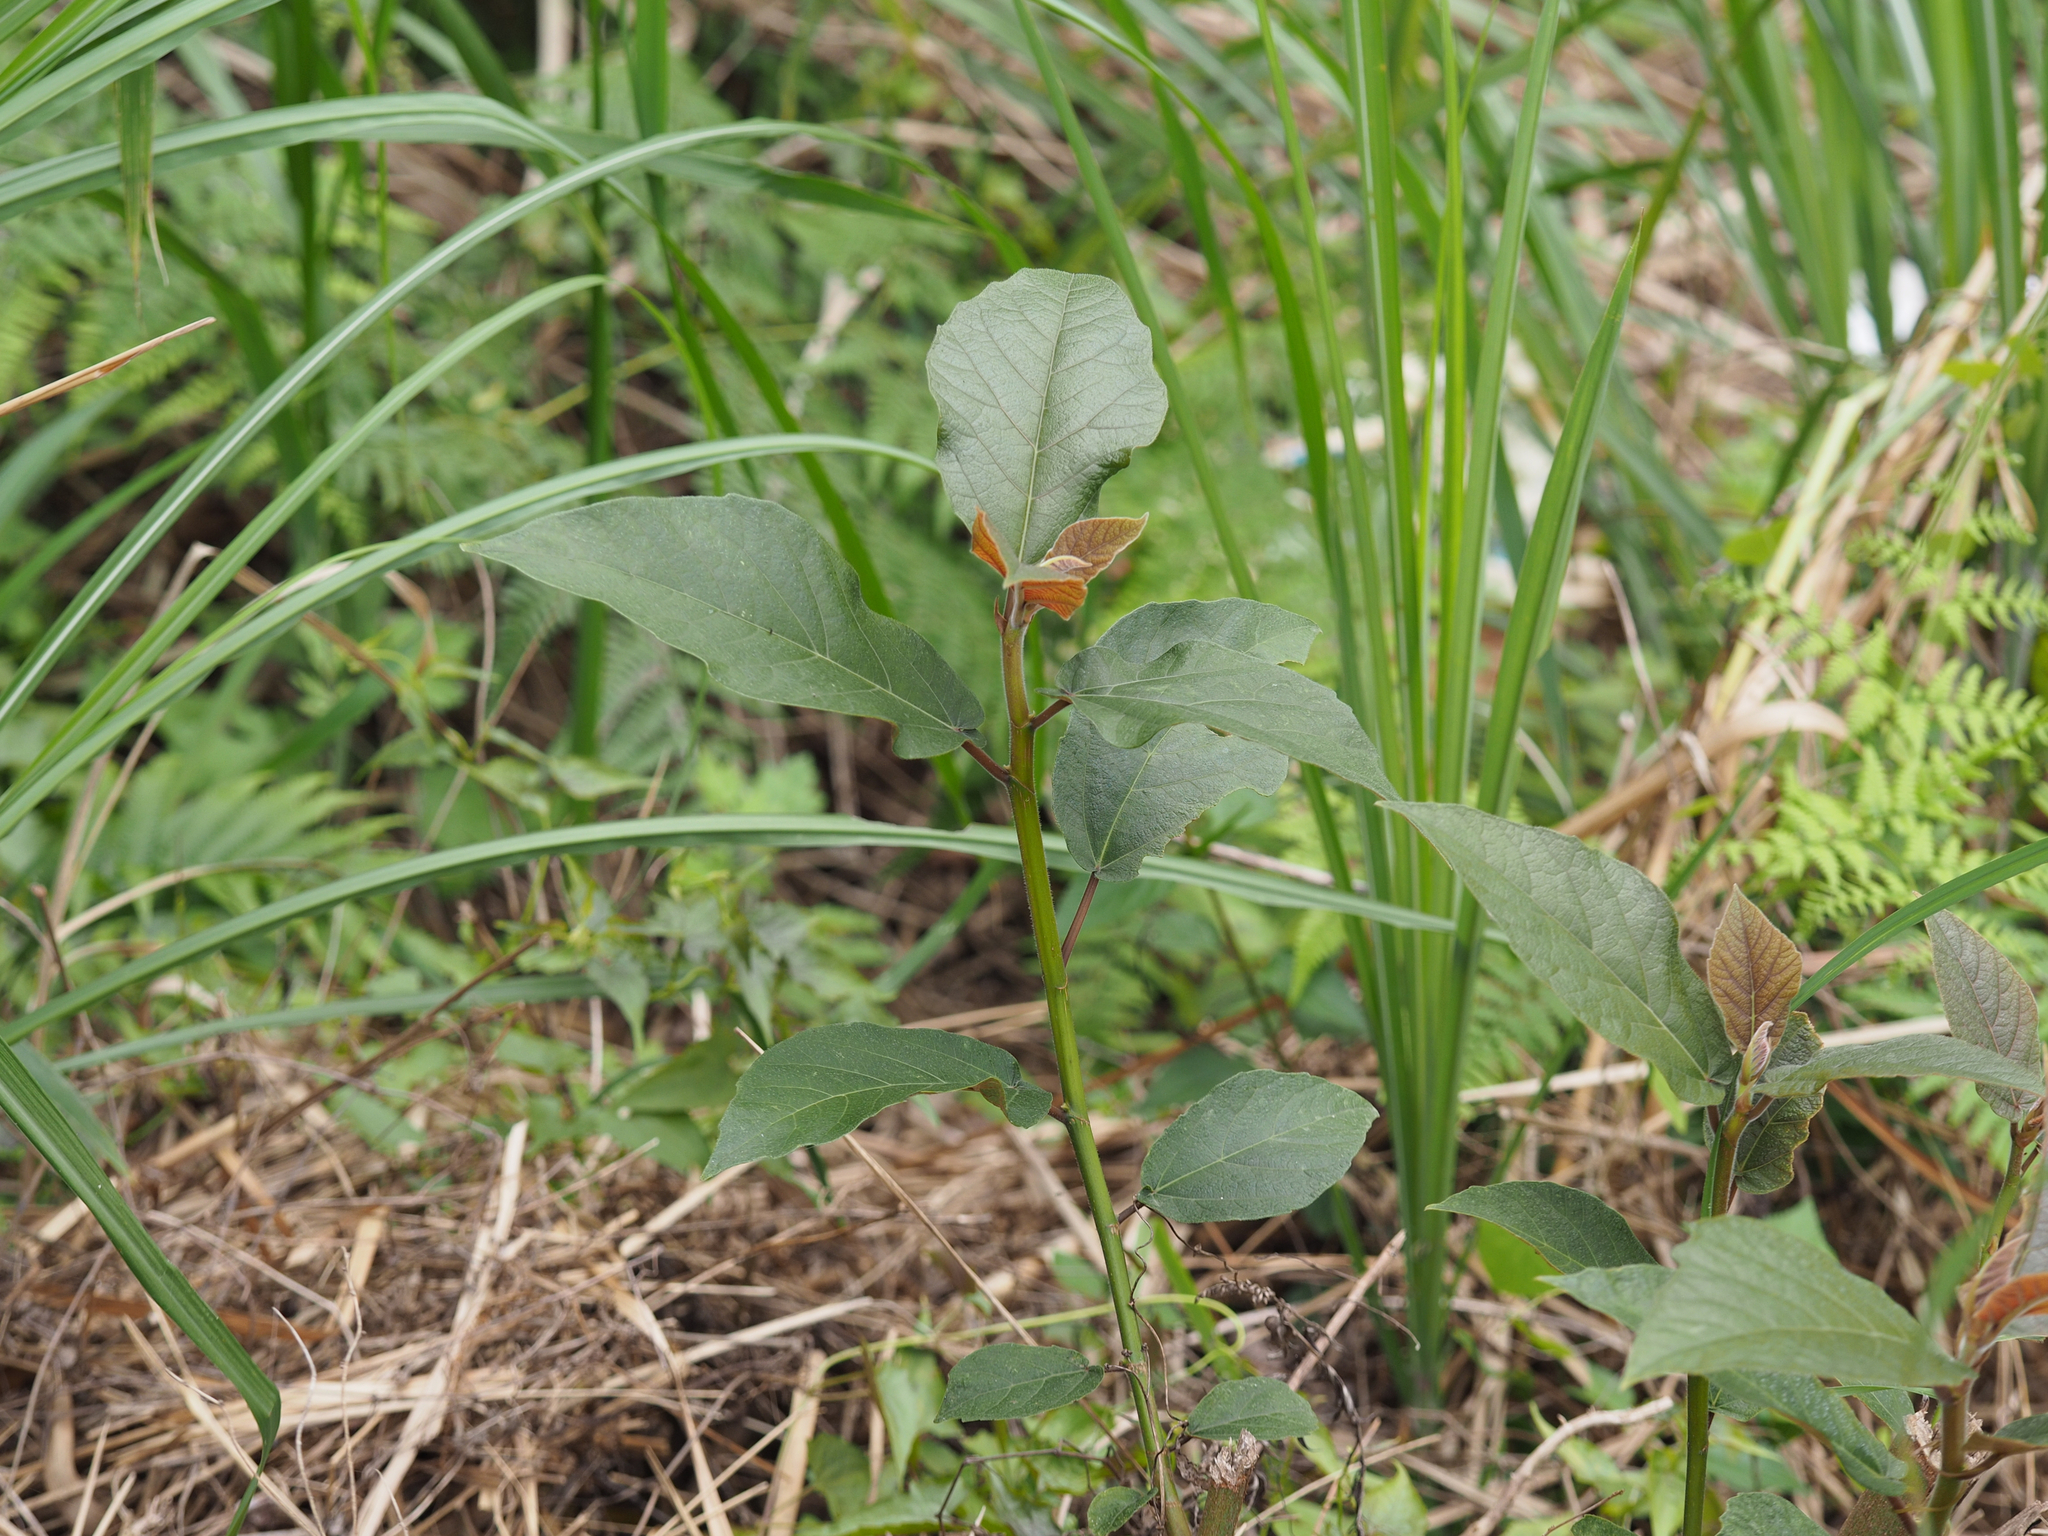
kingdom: Plantae
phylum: Tracheophyta
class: Magnoliopsida
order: Rosales
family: Moraceae
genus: Ficus
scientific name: Ficus erecta
